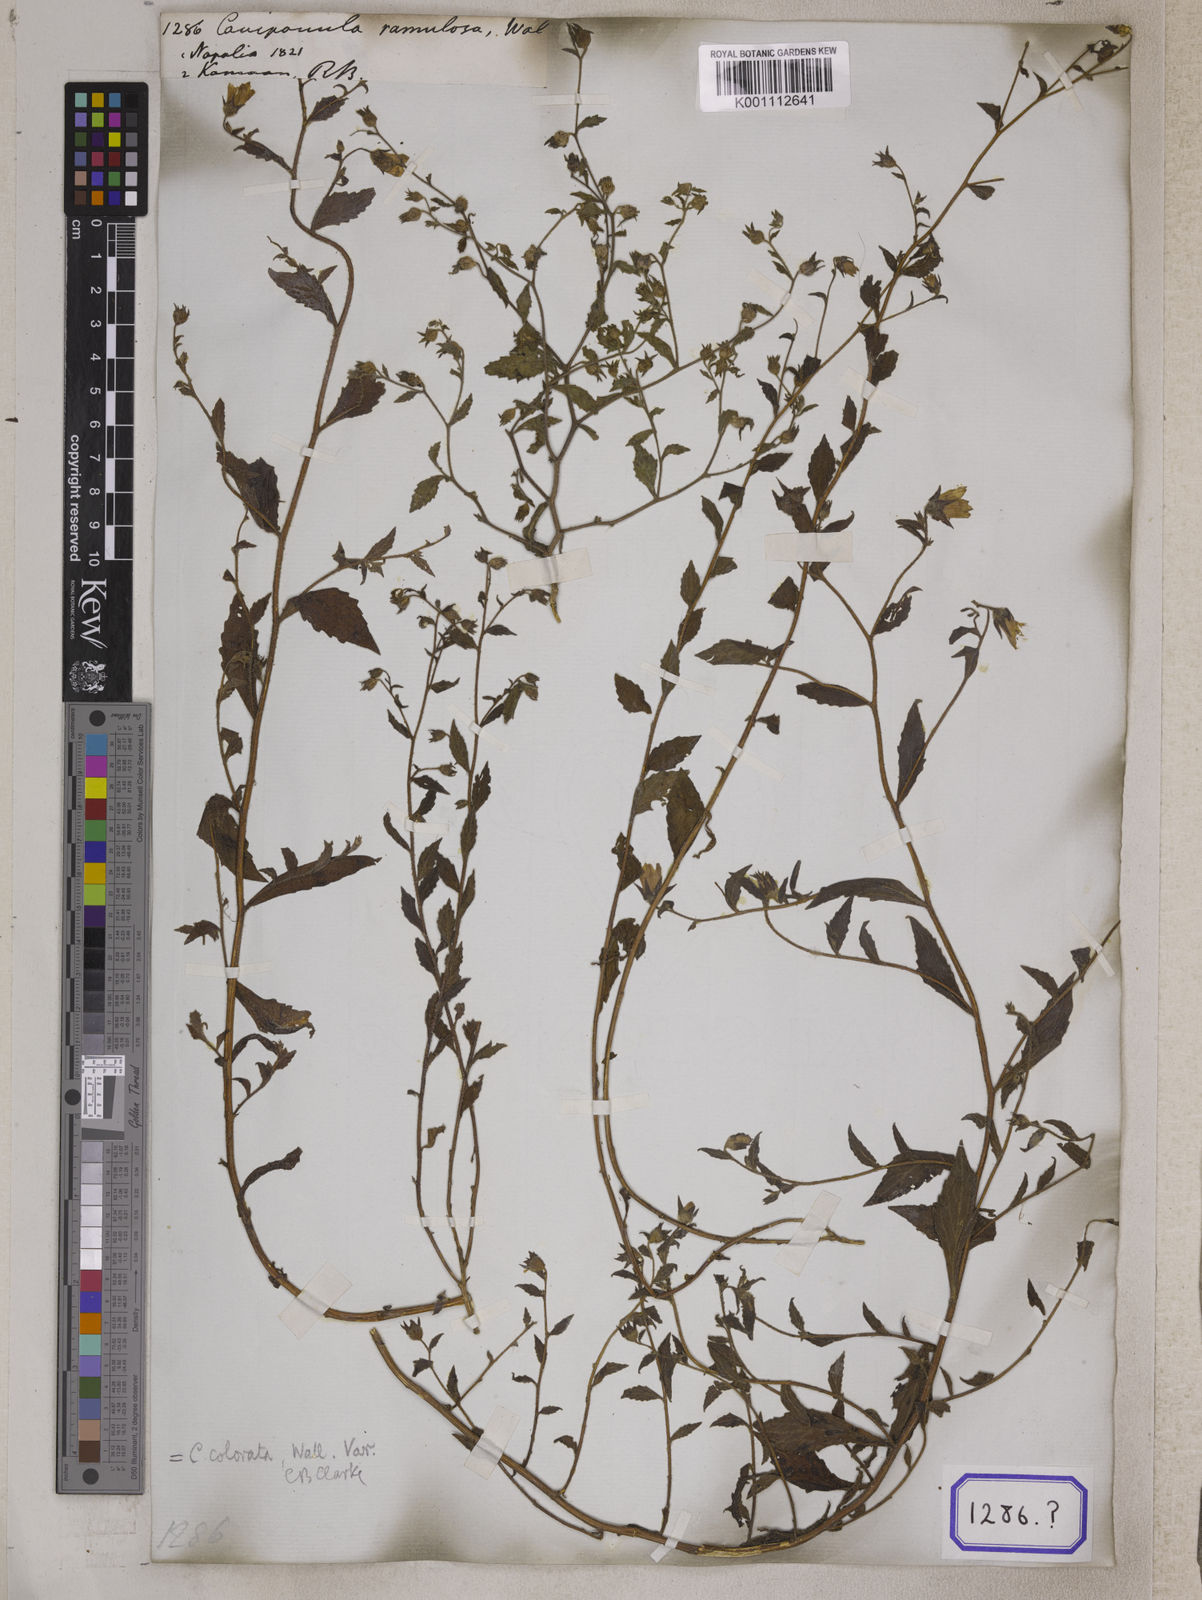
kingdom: Plantae
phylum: Tracheophyta
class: Magnoliopsida
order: Asterales
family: Campanulaceae
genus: Campanula
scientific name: Campanula pallida
